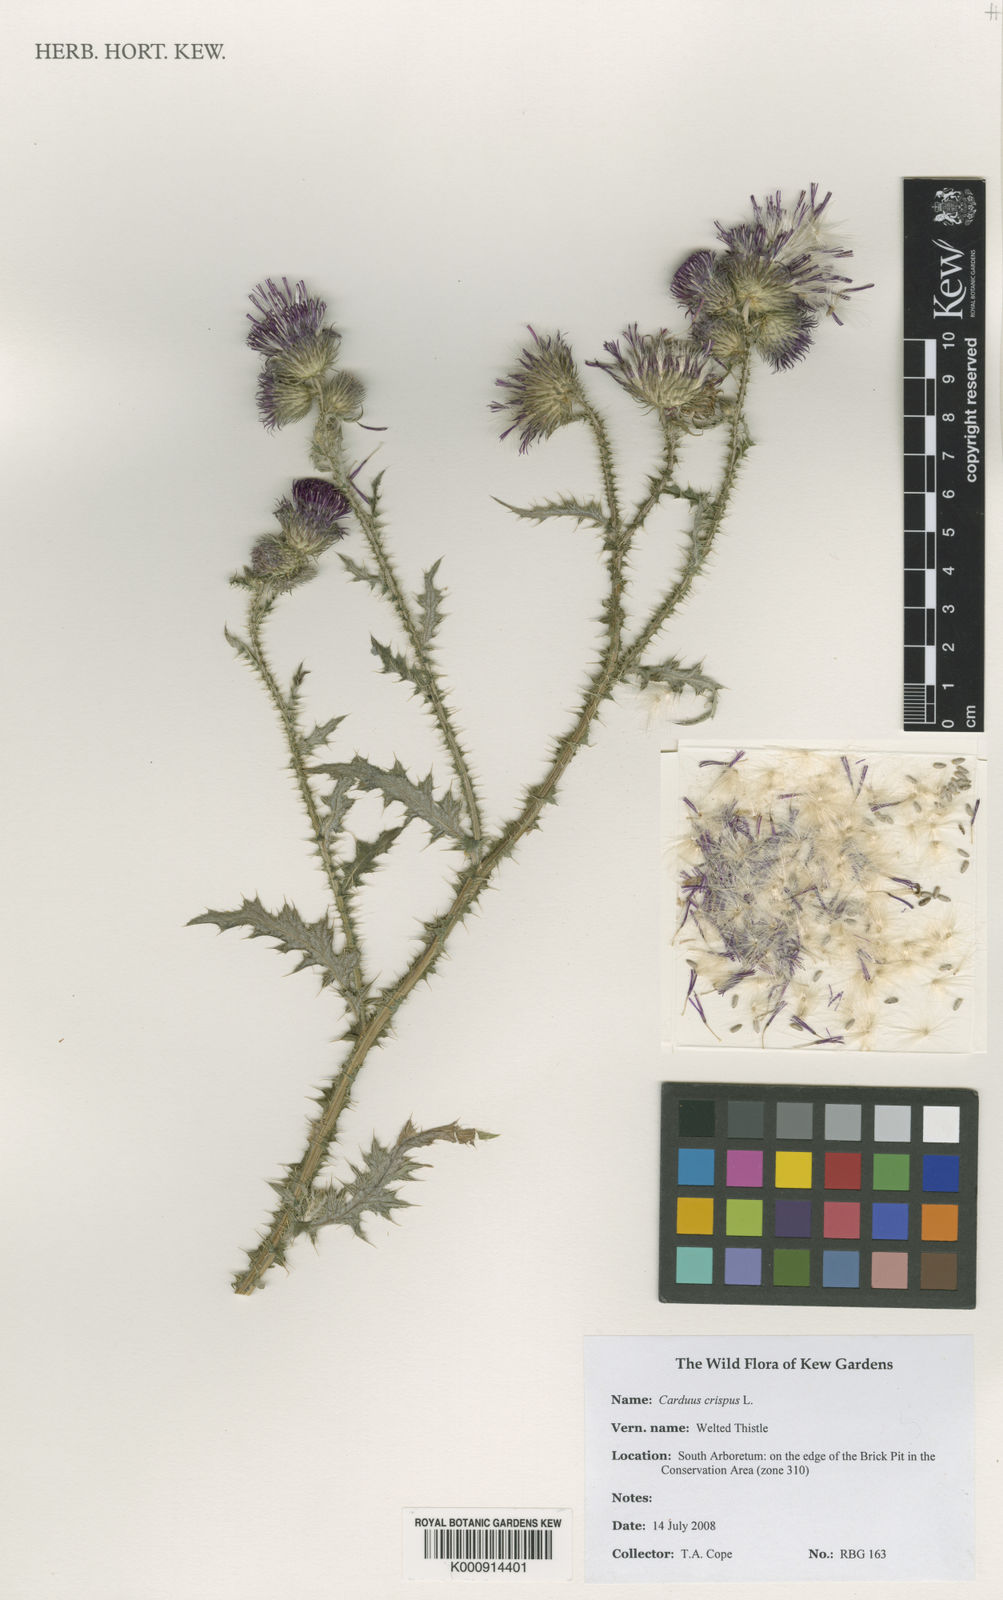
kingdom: Plantae
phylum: Tracheophyta
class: Magnoliopsida
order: Asterales
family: Asteraceae
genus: Carduus
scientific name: Carduus crispus
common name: Welted thistle
